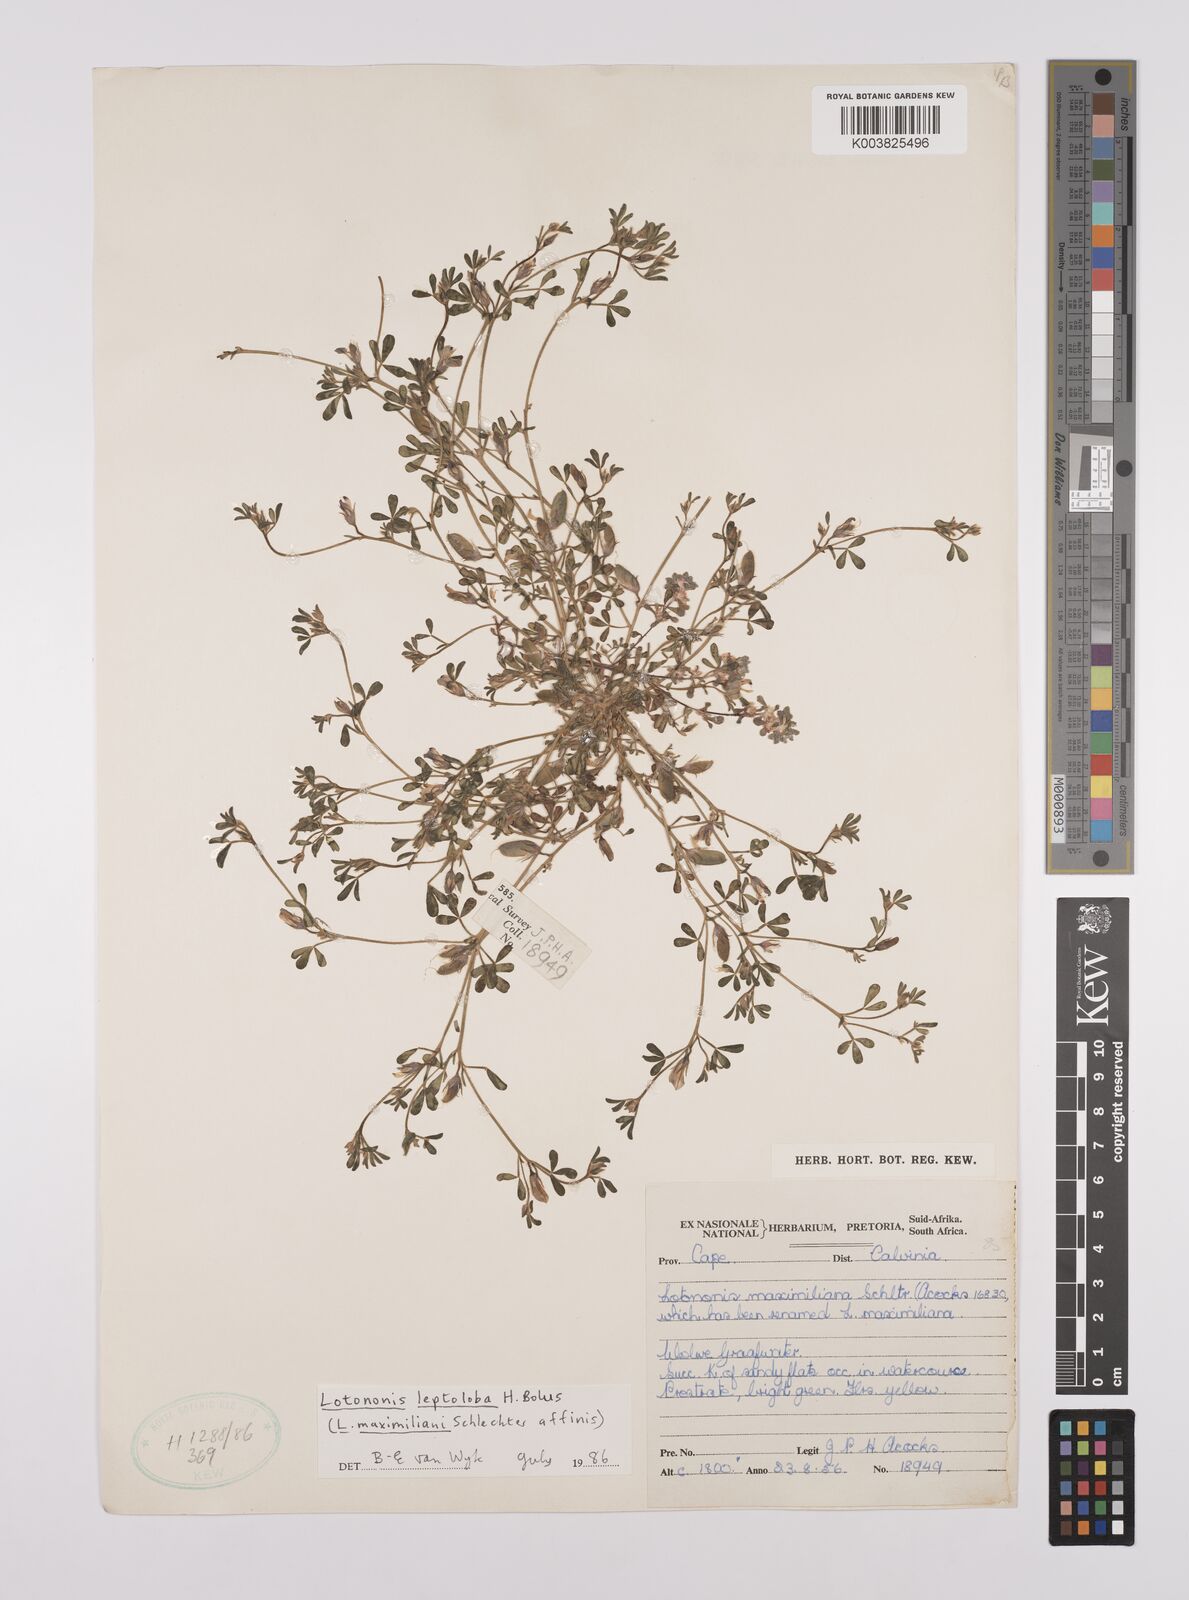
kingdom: Plantae
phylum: Tracheophyta
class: Magnoliopsida
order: Fabales
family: Fabaceae
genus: Lotononis
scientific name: Lotononis leptoloba
